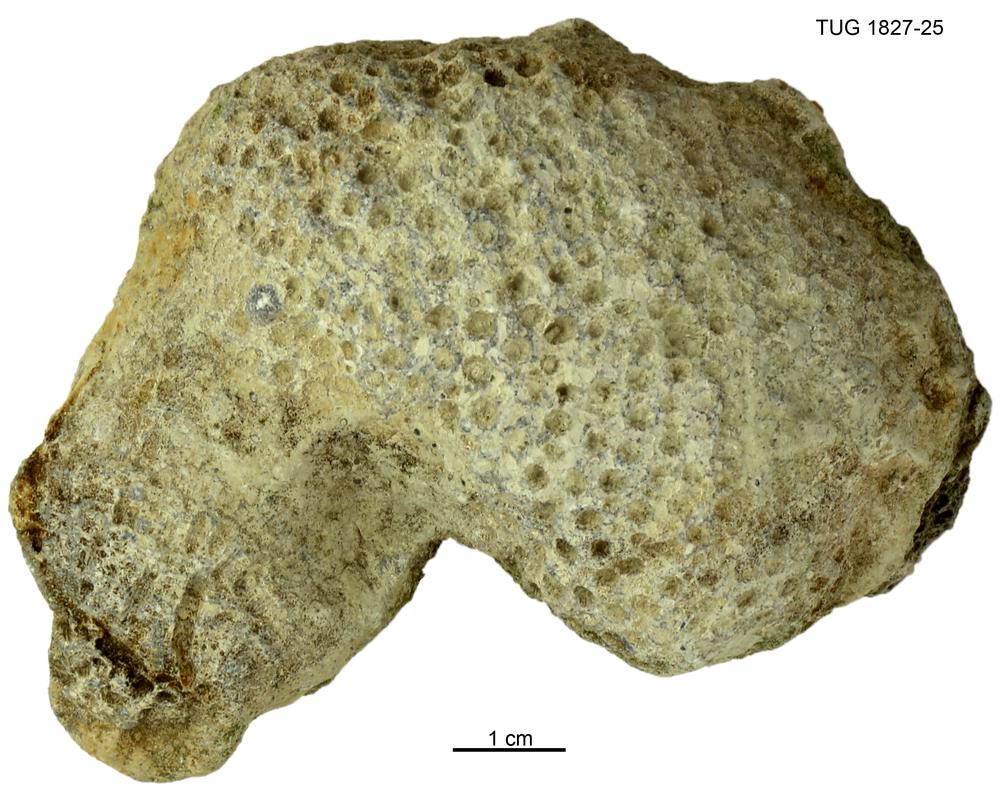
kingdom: Animalia
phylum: Xenacoelomorpha
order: Acoela
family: Proporidae
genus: Propora
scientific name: Propora
